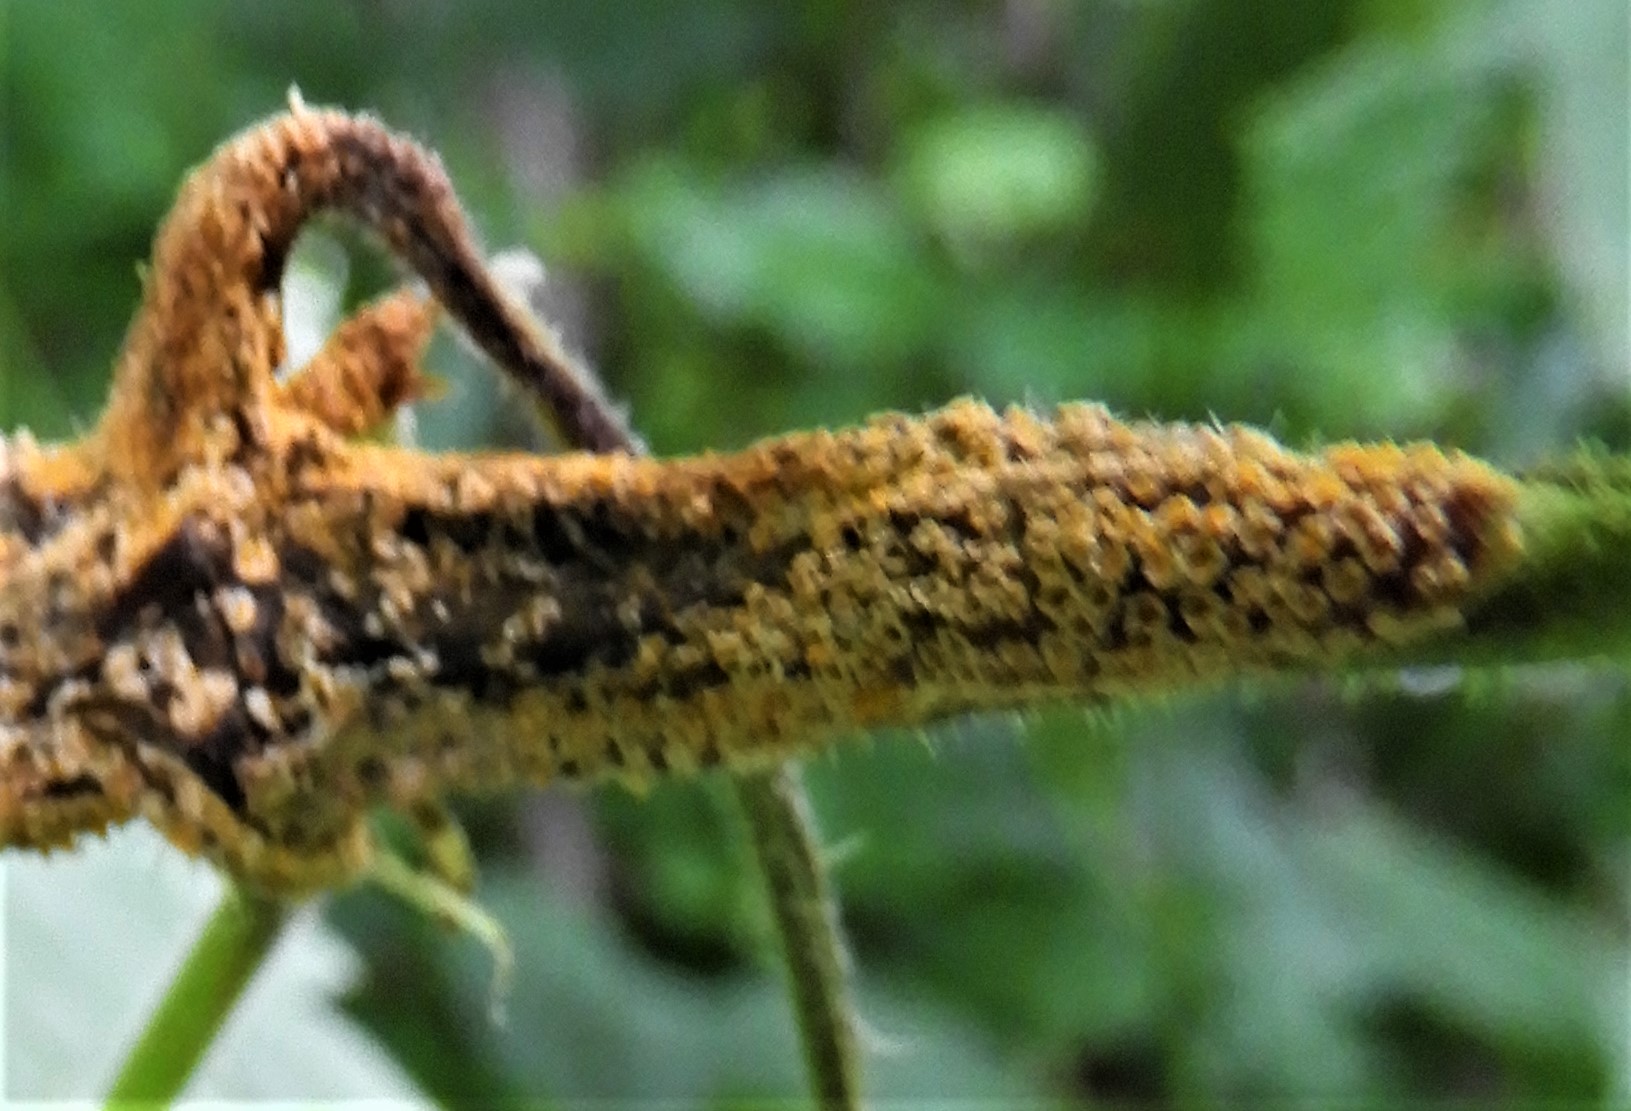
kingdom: Fungi
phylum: Basidiomycota
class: Pucciniomycetes
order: Pucciniales
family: Pucciniaceae
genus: Puccinia
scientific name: Puccinia urticata
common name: nældegalle-tvecellerust
